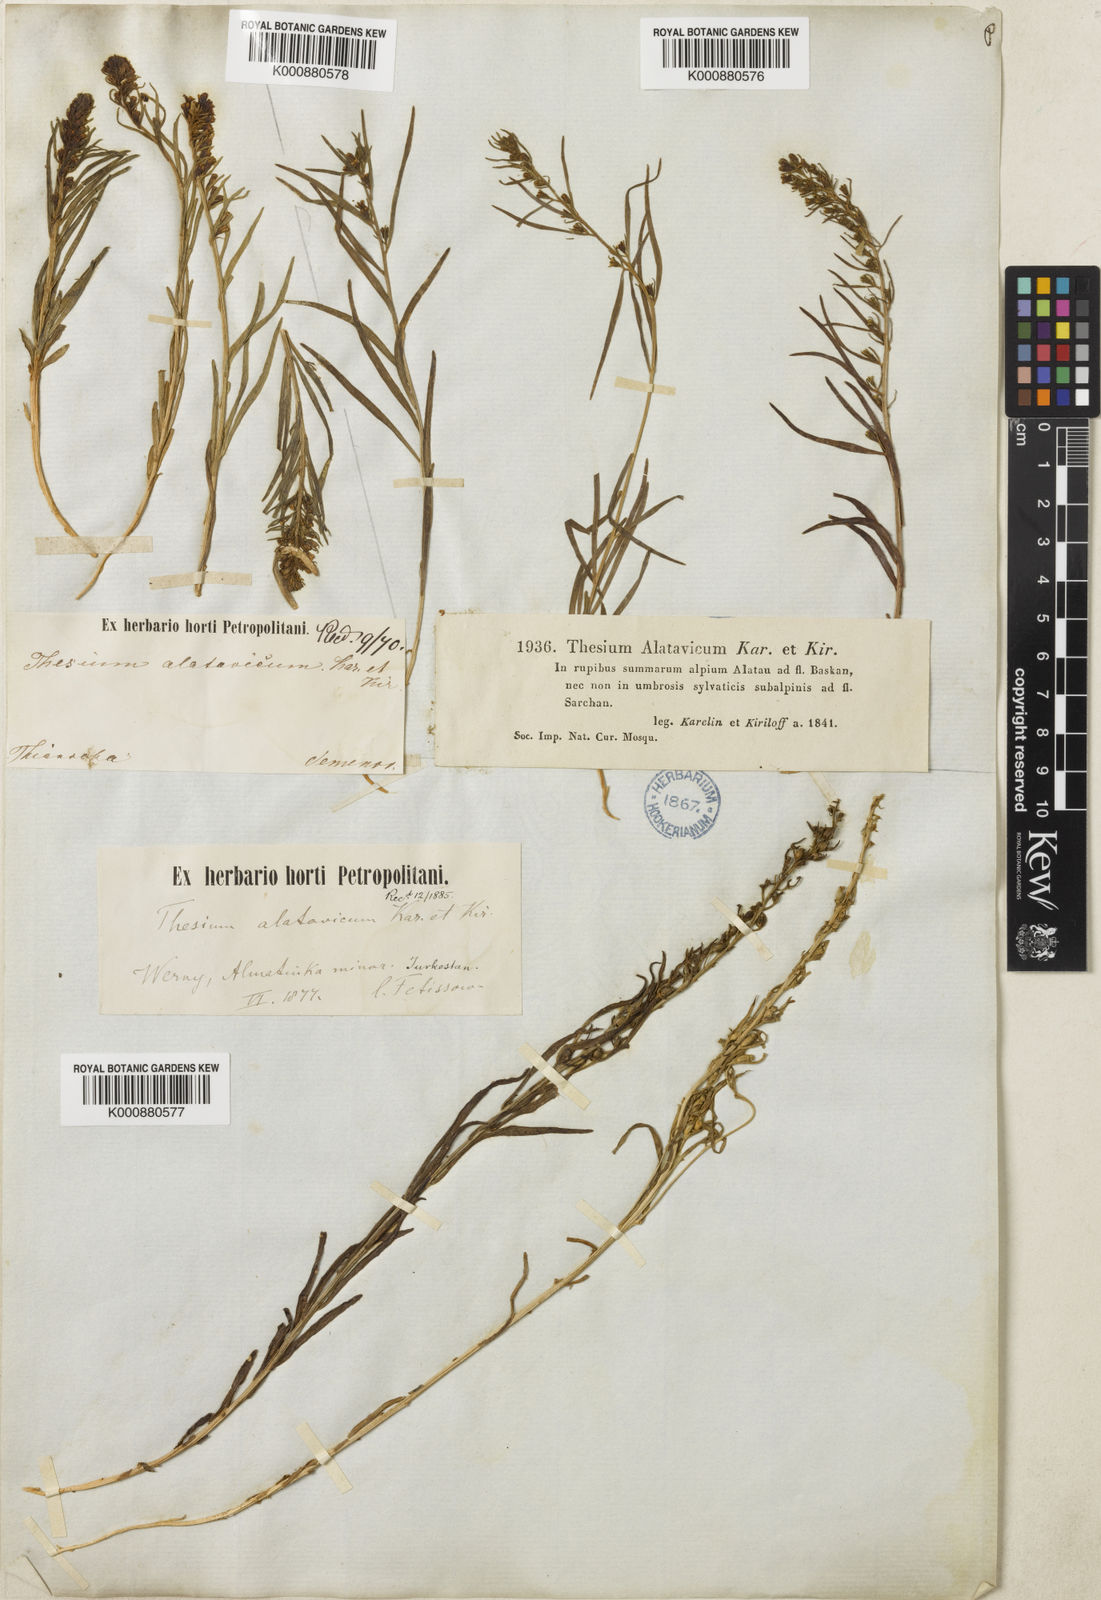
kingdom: Plantae
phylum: Tracheophyta
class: Magnoliopsida
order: Santalales
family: Thesiaceae
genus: Thesium
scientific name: Thesium alatavicum
